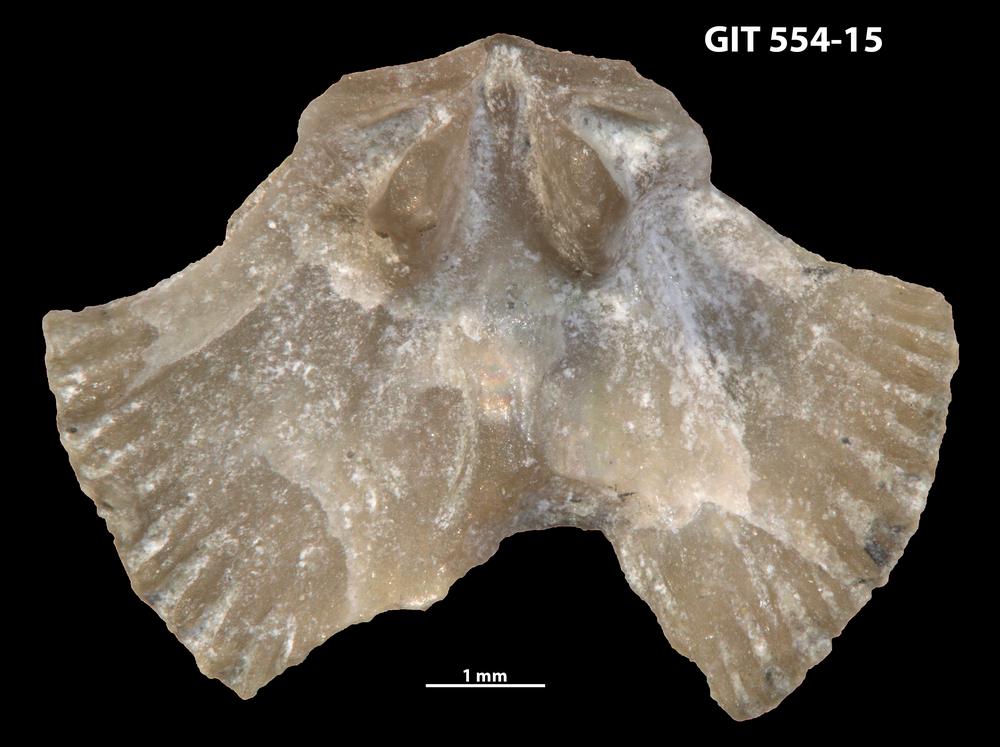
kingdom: Animalia
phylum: Brachiopoda
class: Rhynchonellata
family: Dalmanellidae
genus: Onniella
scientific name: Onniella trigona
